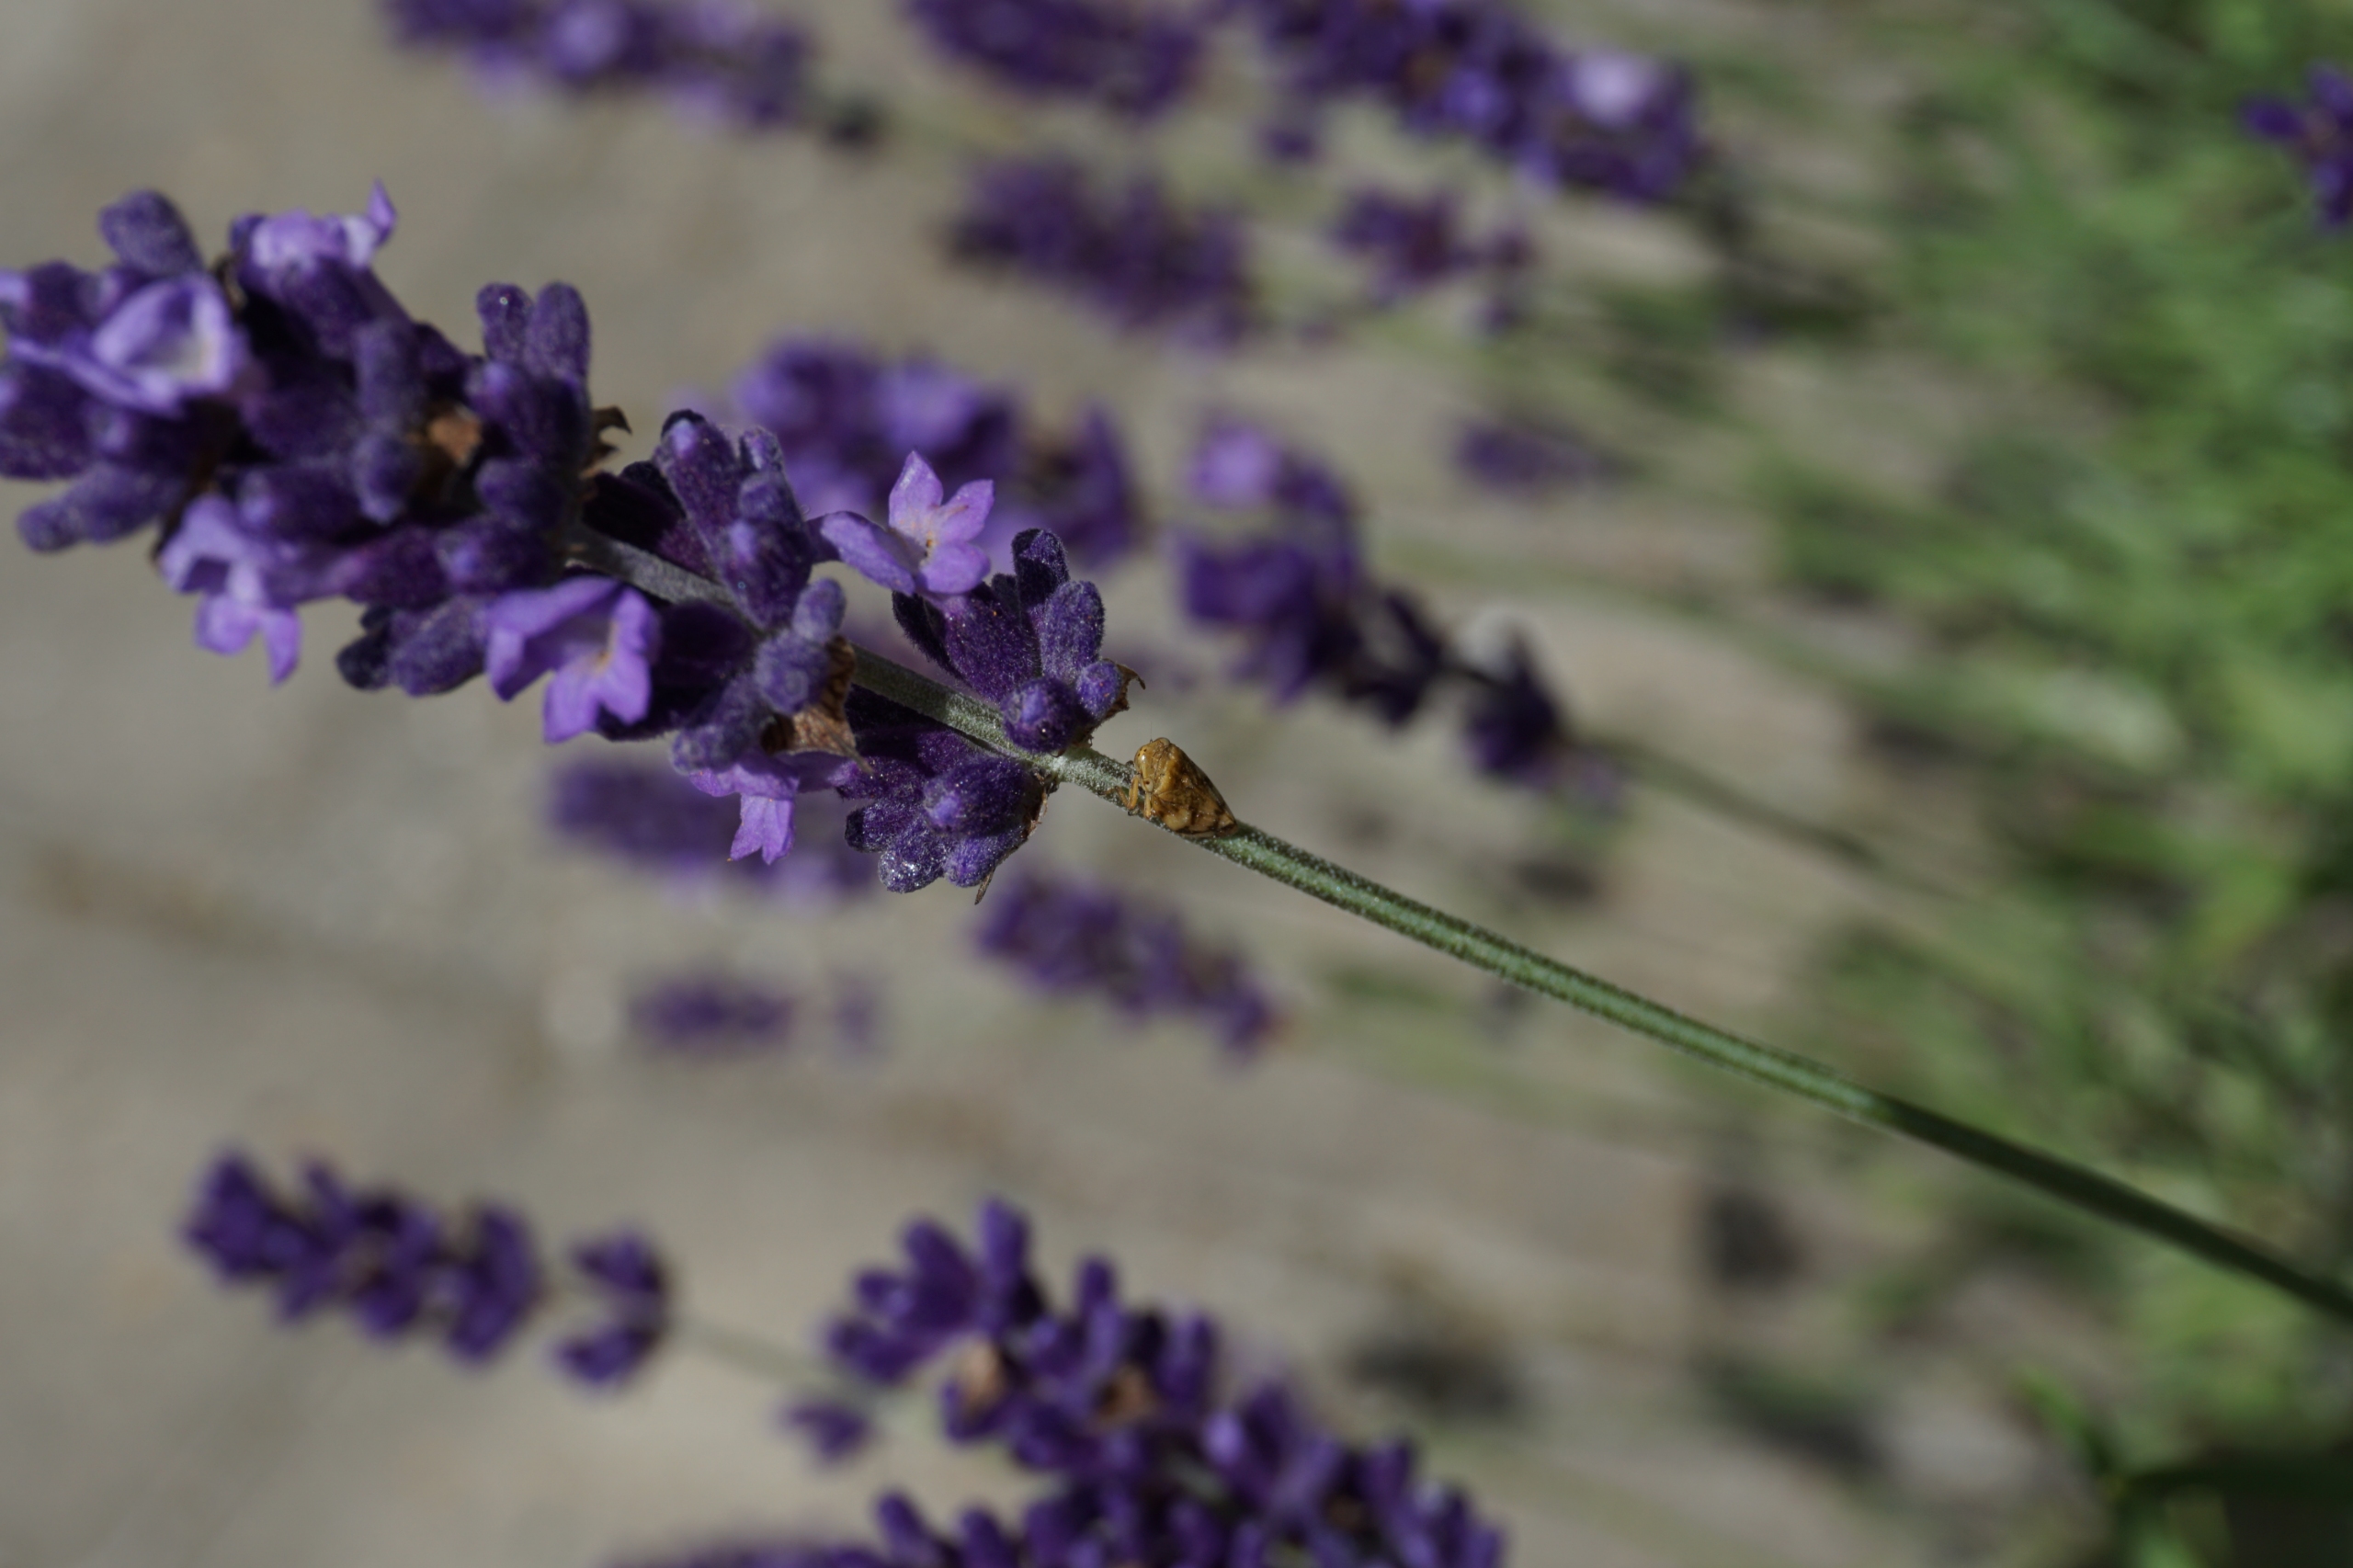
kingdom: Animalia
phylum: Arthropoda
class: Insecta
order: Hemiptera
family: Aphrophoridae
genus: Philaenus
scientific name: Philaenus spumarius
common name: Almindelig skumcikade
